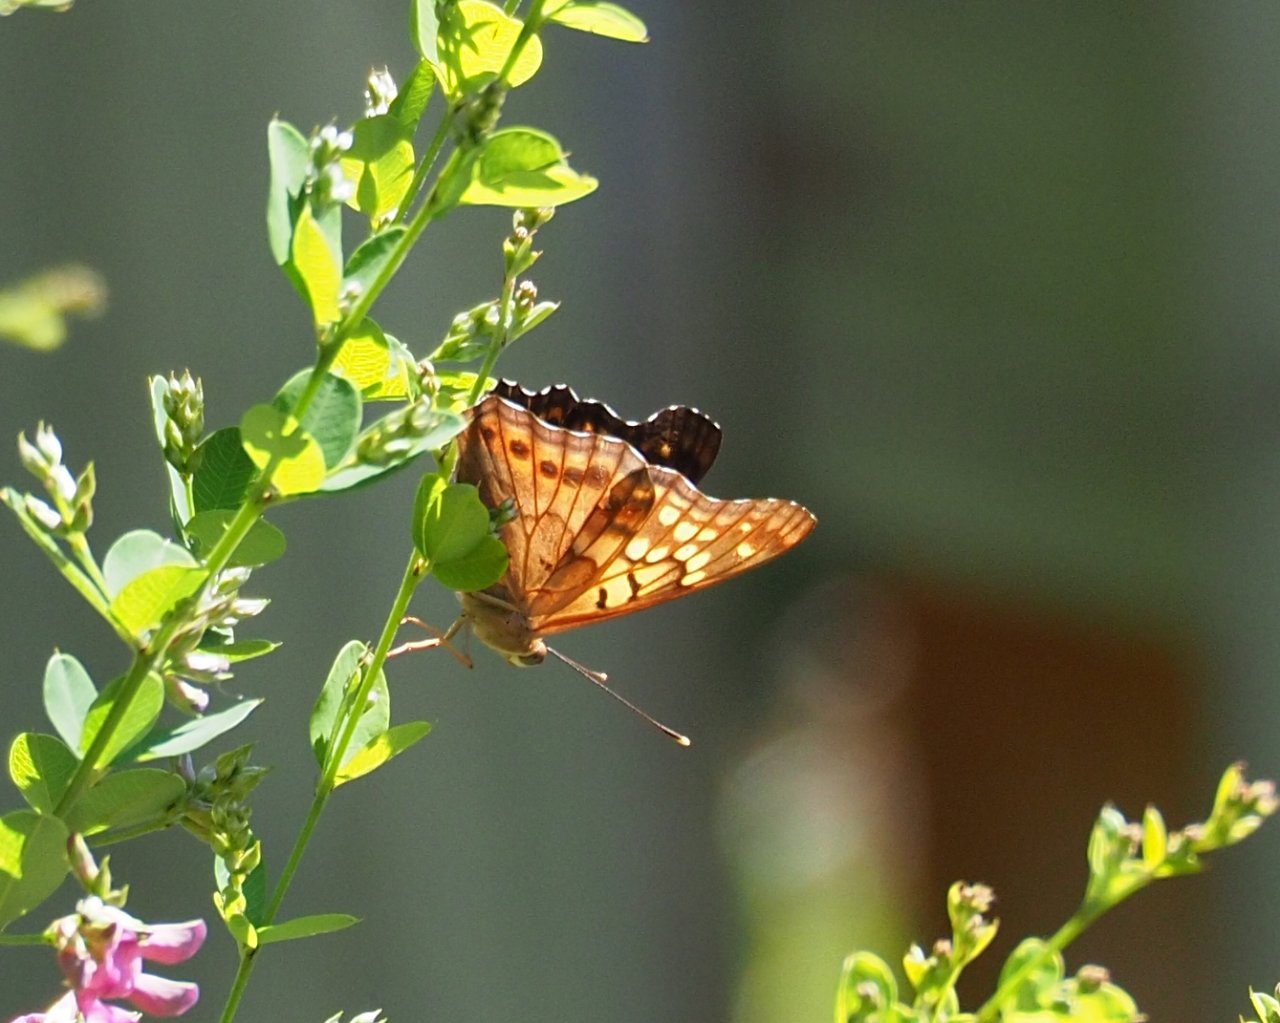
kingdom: Animalia
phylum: Arthropoda
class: Insecta
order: Lepidoptera
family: Nymphalidae
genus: Asterocampa
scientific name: Asterocampa clyton
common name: Tawny Emperor
